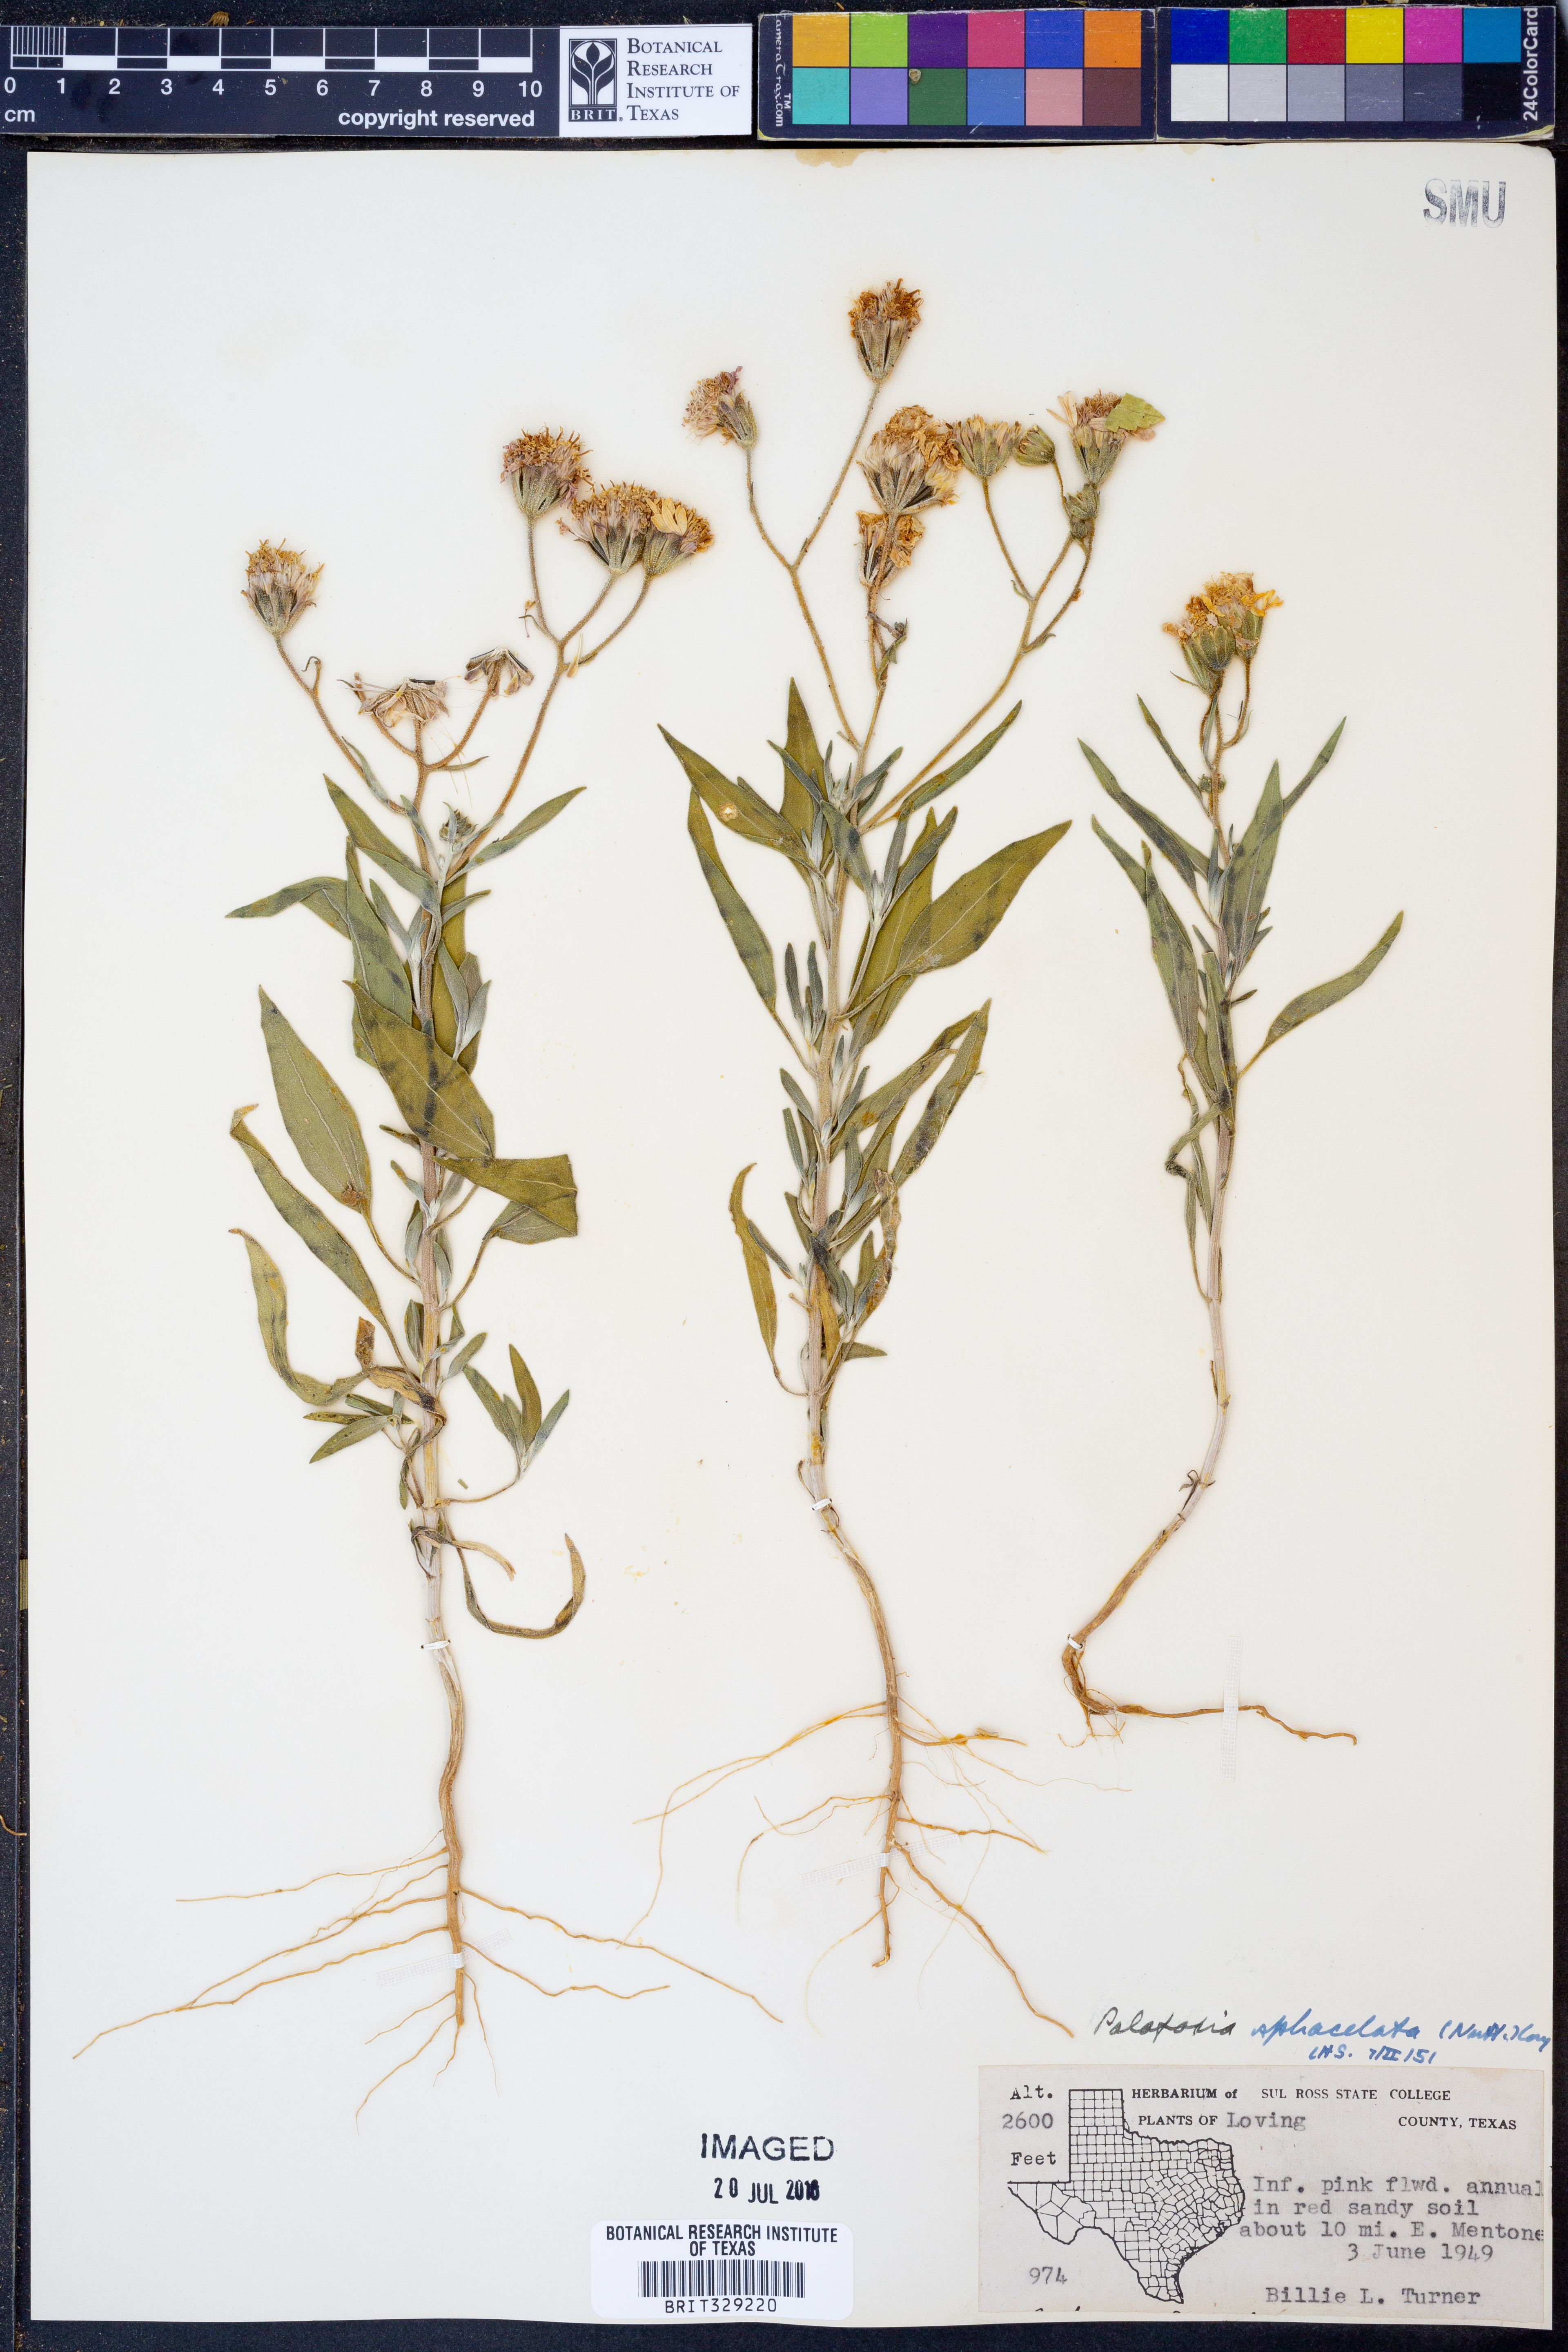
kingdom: Plantae
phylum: Tracheophyta
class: Magnoliopsida
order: Asterales
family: Asteraceae
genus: Palafoxia
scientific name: Palafoxia sphacelata
